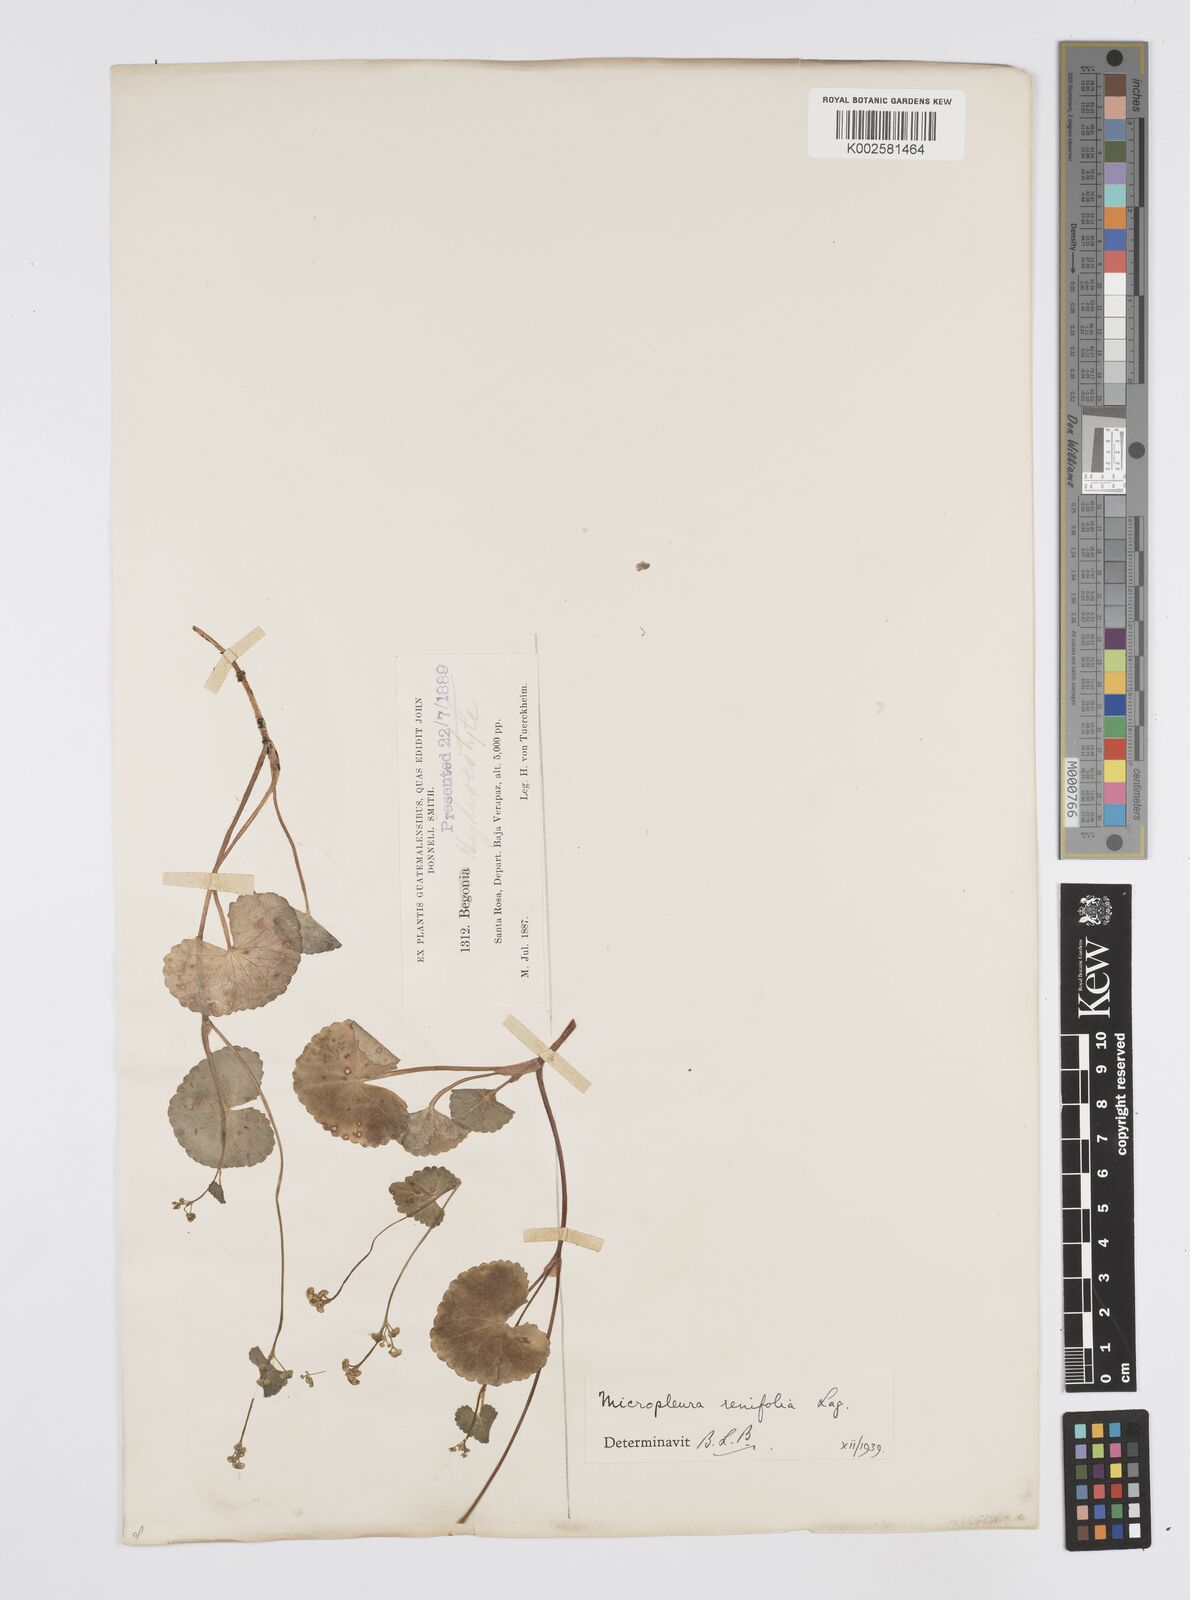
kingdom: Plantae
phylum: Tracheophyta
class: Magnoliopsida
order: Apiales
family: Apiaceae
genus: Micropleura
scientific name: Micropleura renifolia
